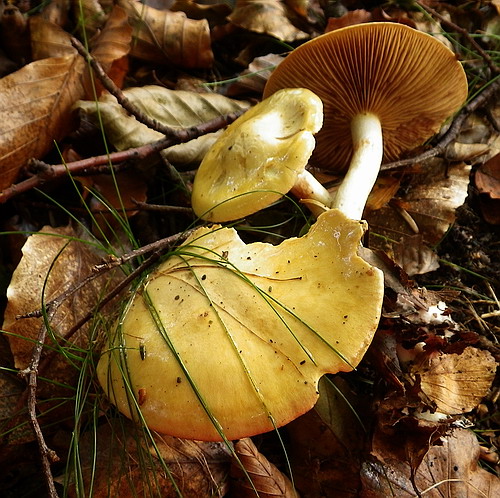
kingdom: Fungi
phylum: Basidiomycota
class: Agaricomycetes
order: Agaricales
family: Cortinariaceae
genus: Cortinarius
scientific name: Cortinarius delibutus
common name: gul slørhat
